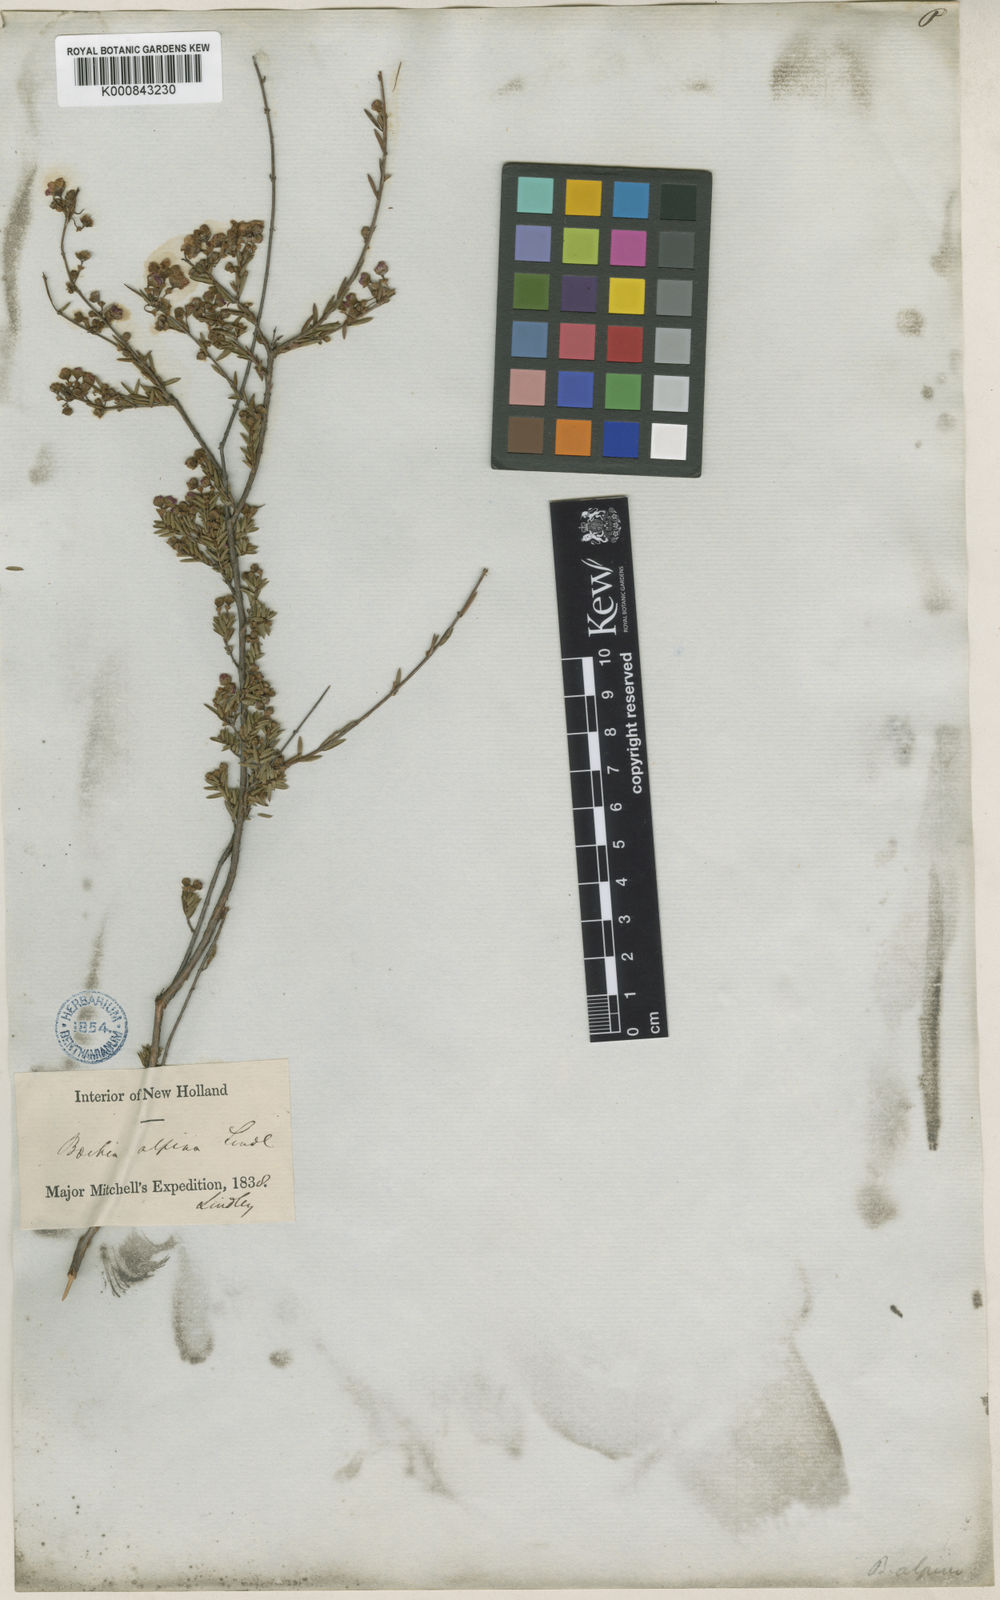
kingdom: Plantae
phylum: Tracheophyta
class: Magnoliopsida
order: Myrtales
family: Myrtaceae
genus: Euryomyrtus
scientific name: Euryomyrtus ramosissima
